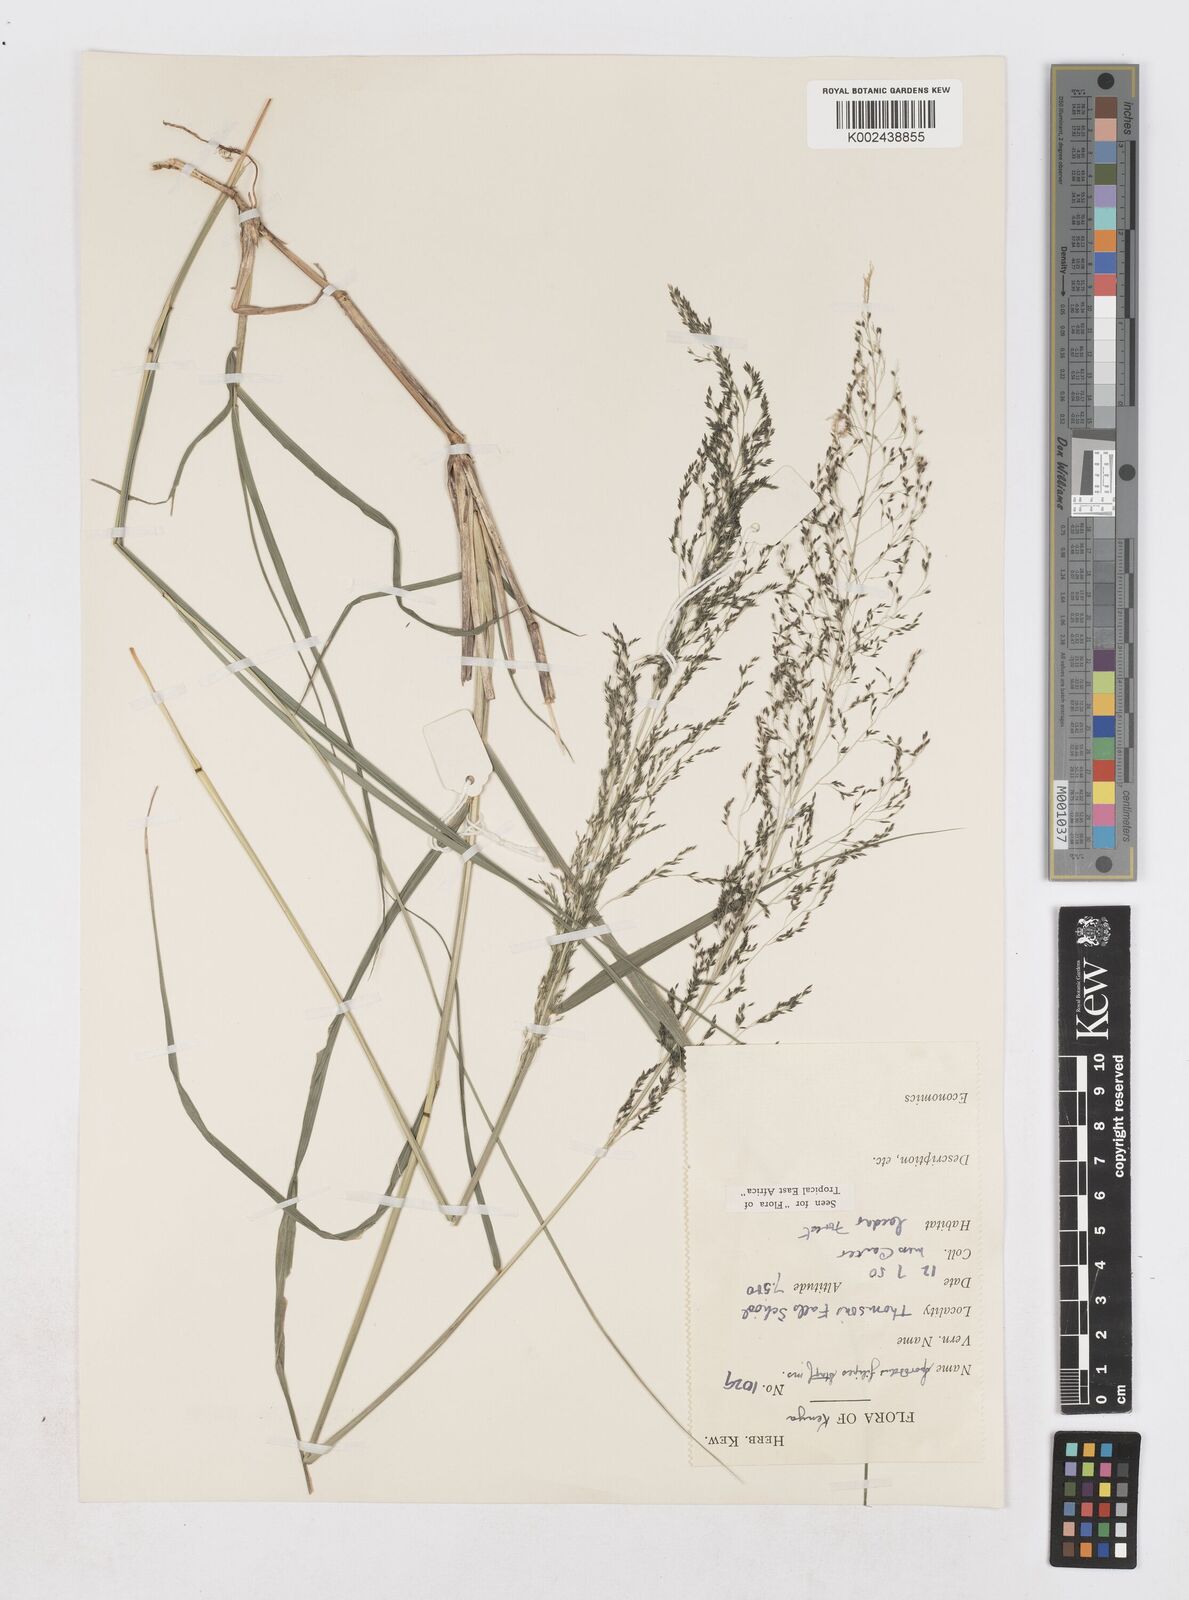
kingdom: Plantae
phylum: Tracheophyta
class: Liliopsida
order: Poales
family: Poaceae
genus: Sporobolus
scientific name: Sporobolus agrostoides
